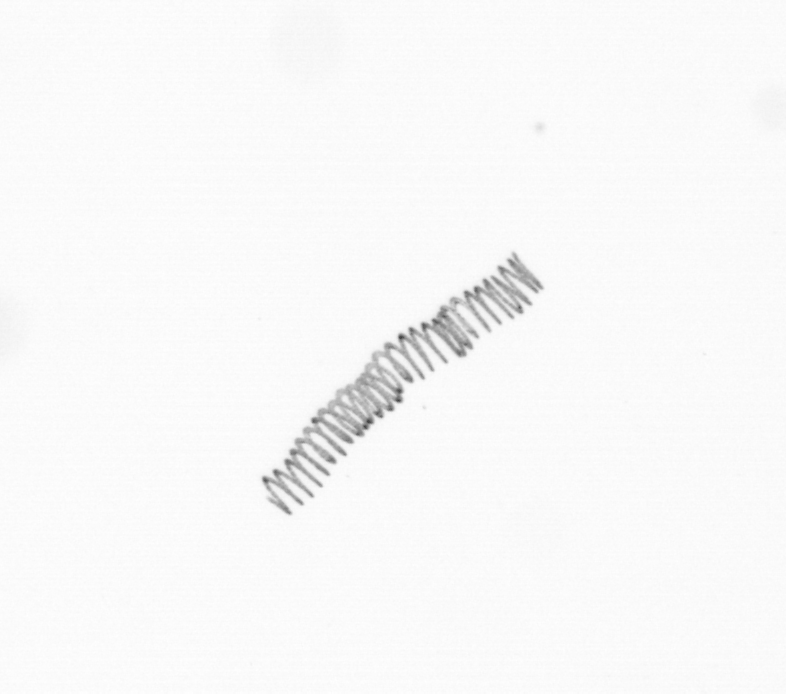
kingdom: Chromista
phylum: Ochrophyta
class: Bacillariophyceae
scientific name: Bacillariophyceae
